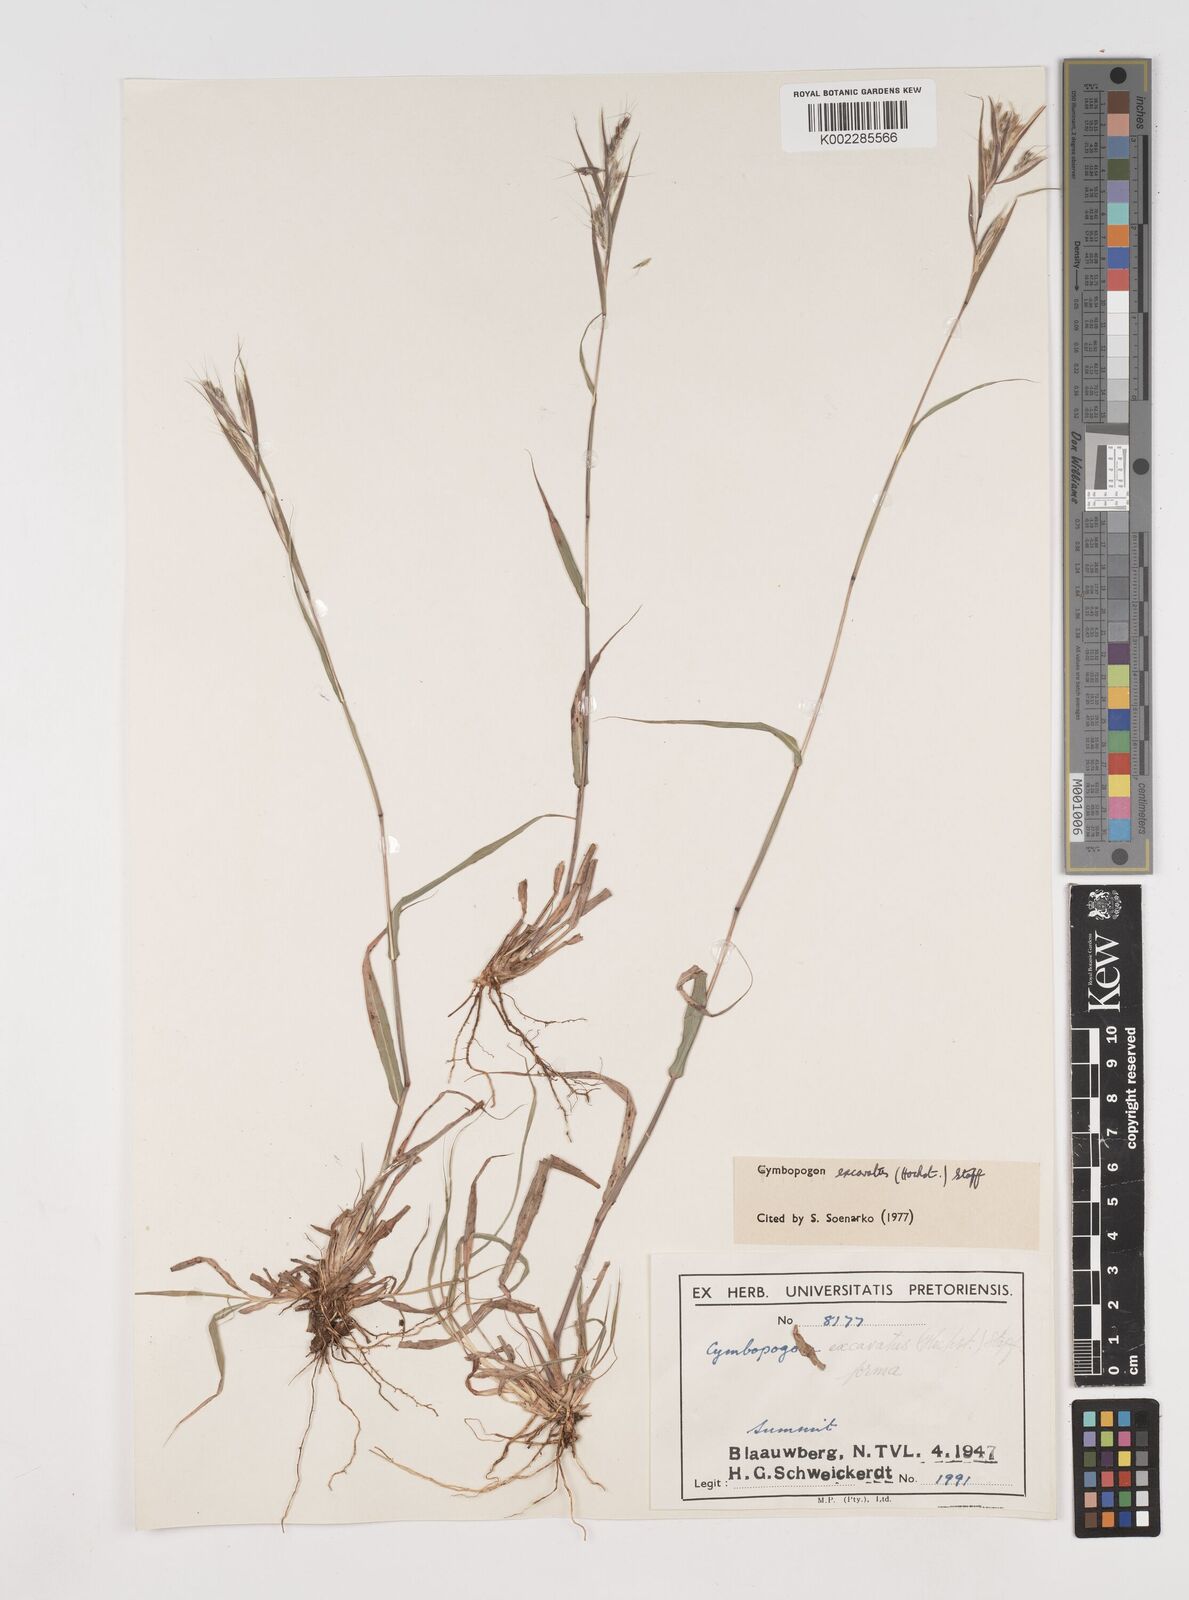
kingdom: Plantae
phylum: Tracheophyta
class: Liliopsida
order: Poales
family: Poaceae
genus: Cymbopogon
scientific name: Cymbopogon caesius
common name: Kachi grass
